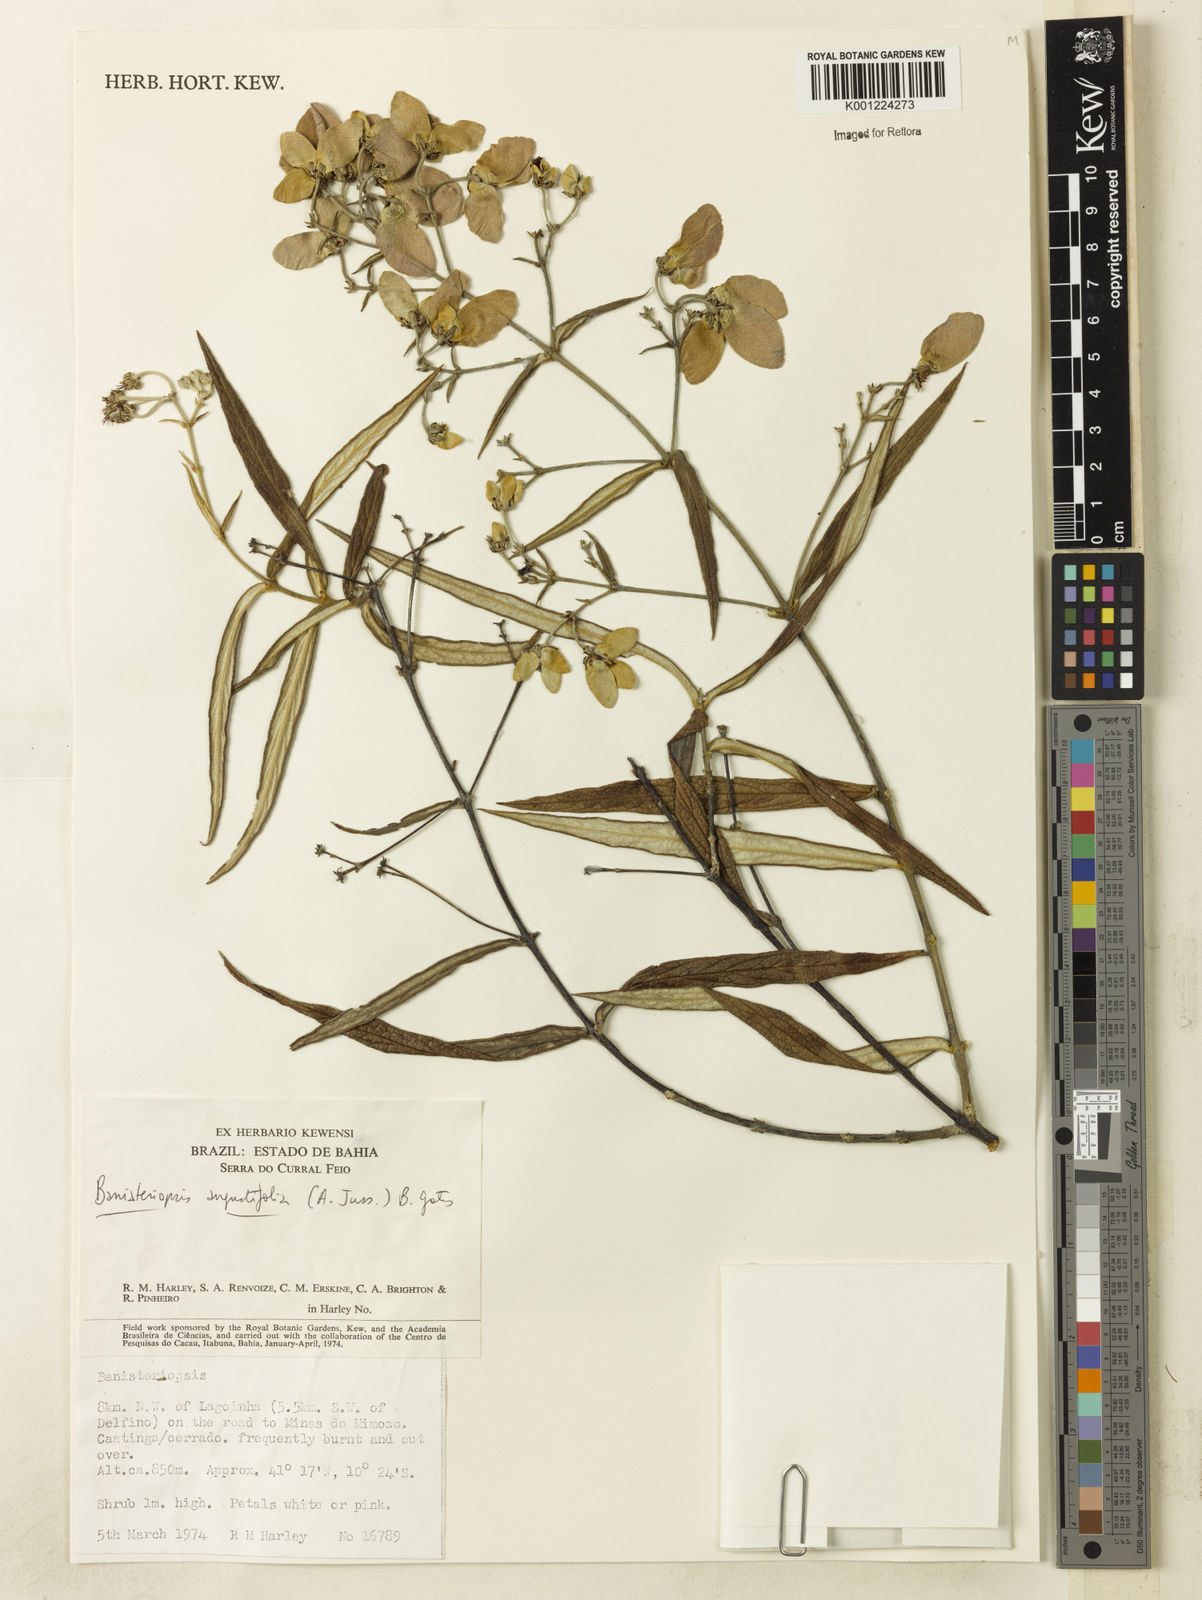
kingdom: Plantae
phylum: Tracheophyta
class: Magnoliopsida
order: Malpighiales
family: Malpighiaceae
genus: Banisteriopsis
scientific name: Banisteriopsis angustifolia
